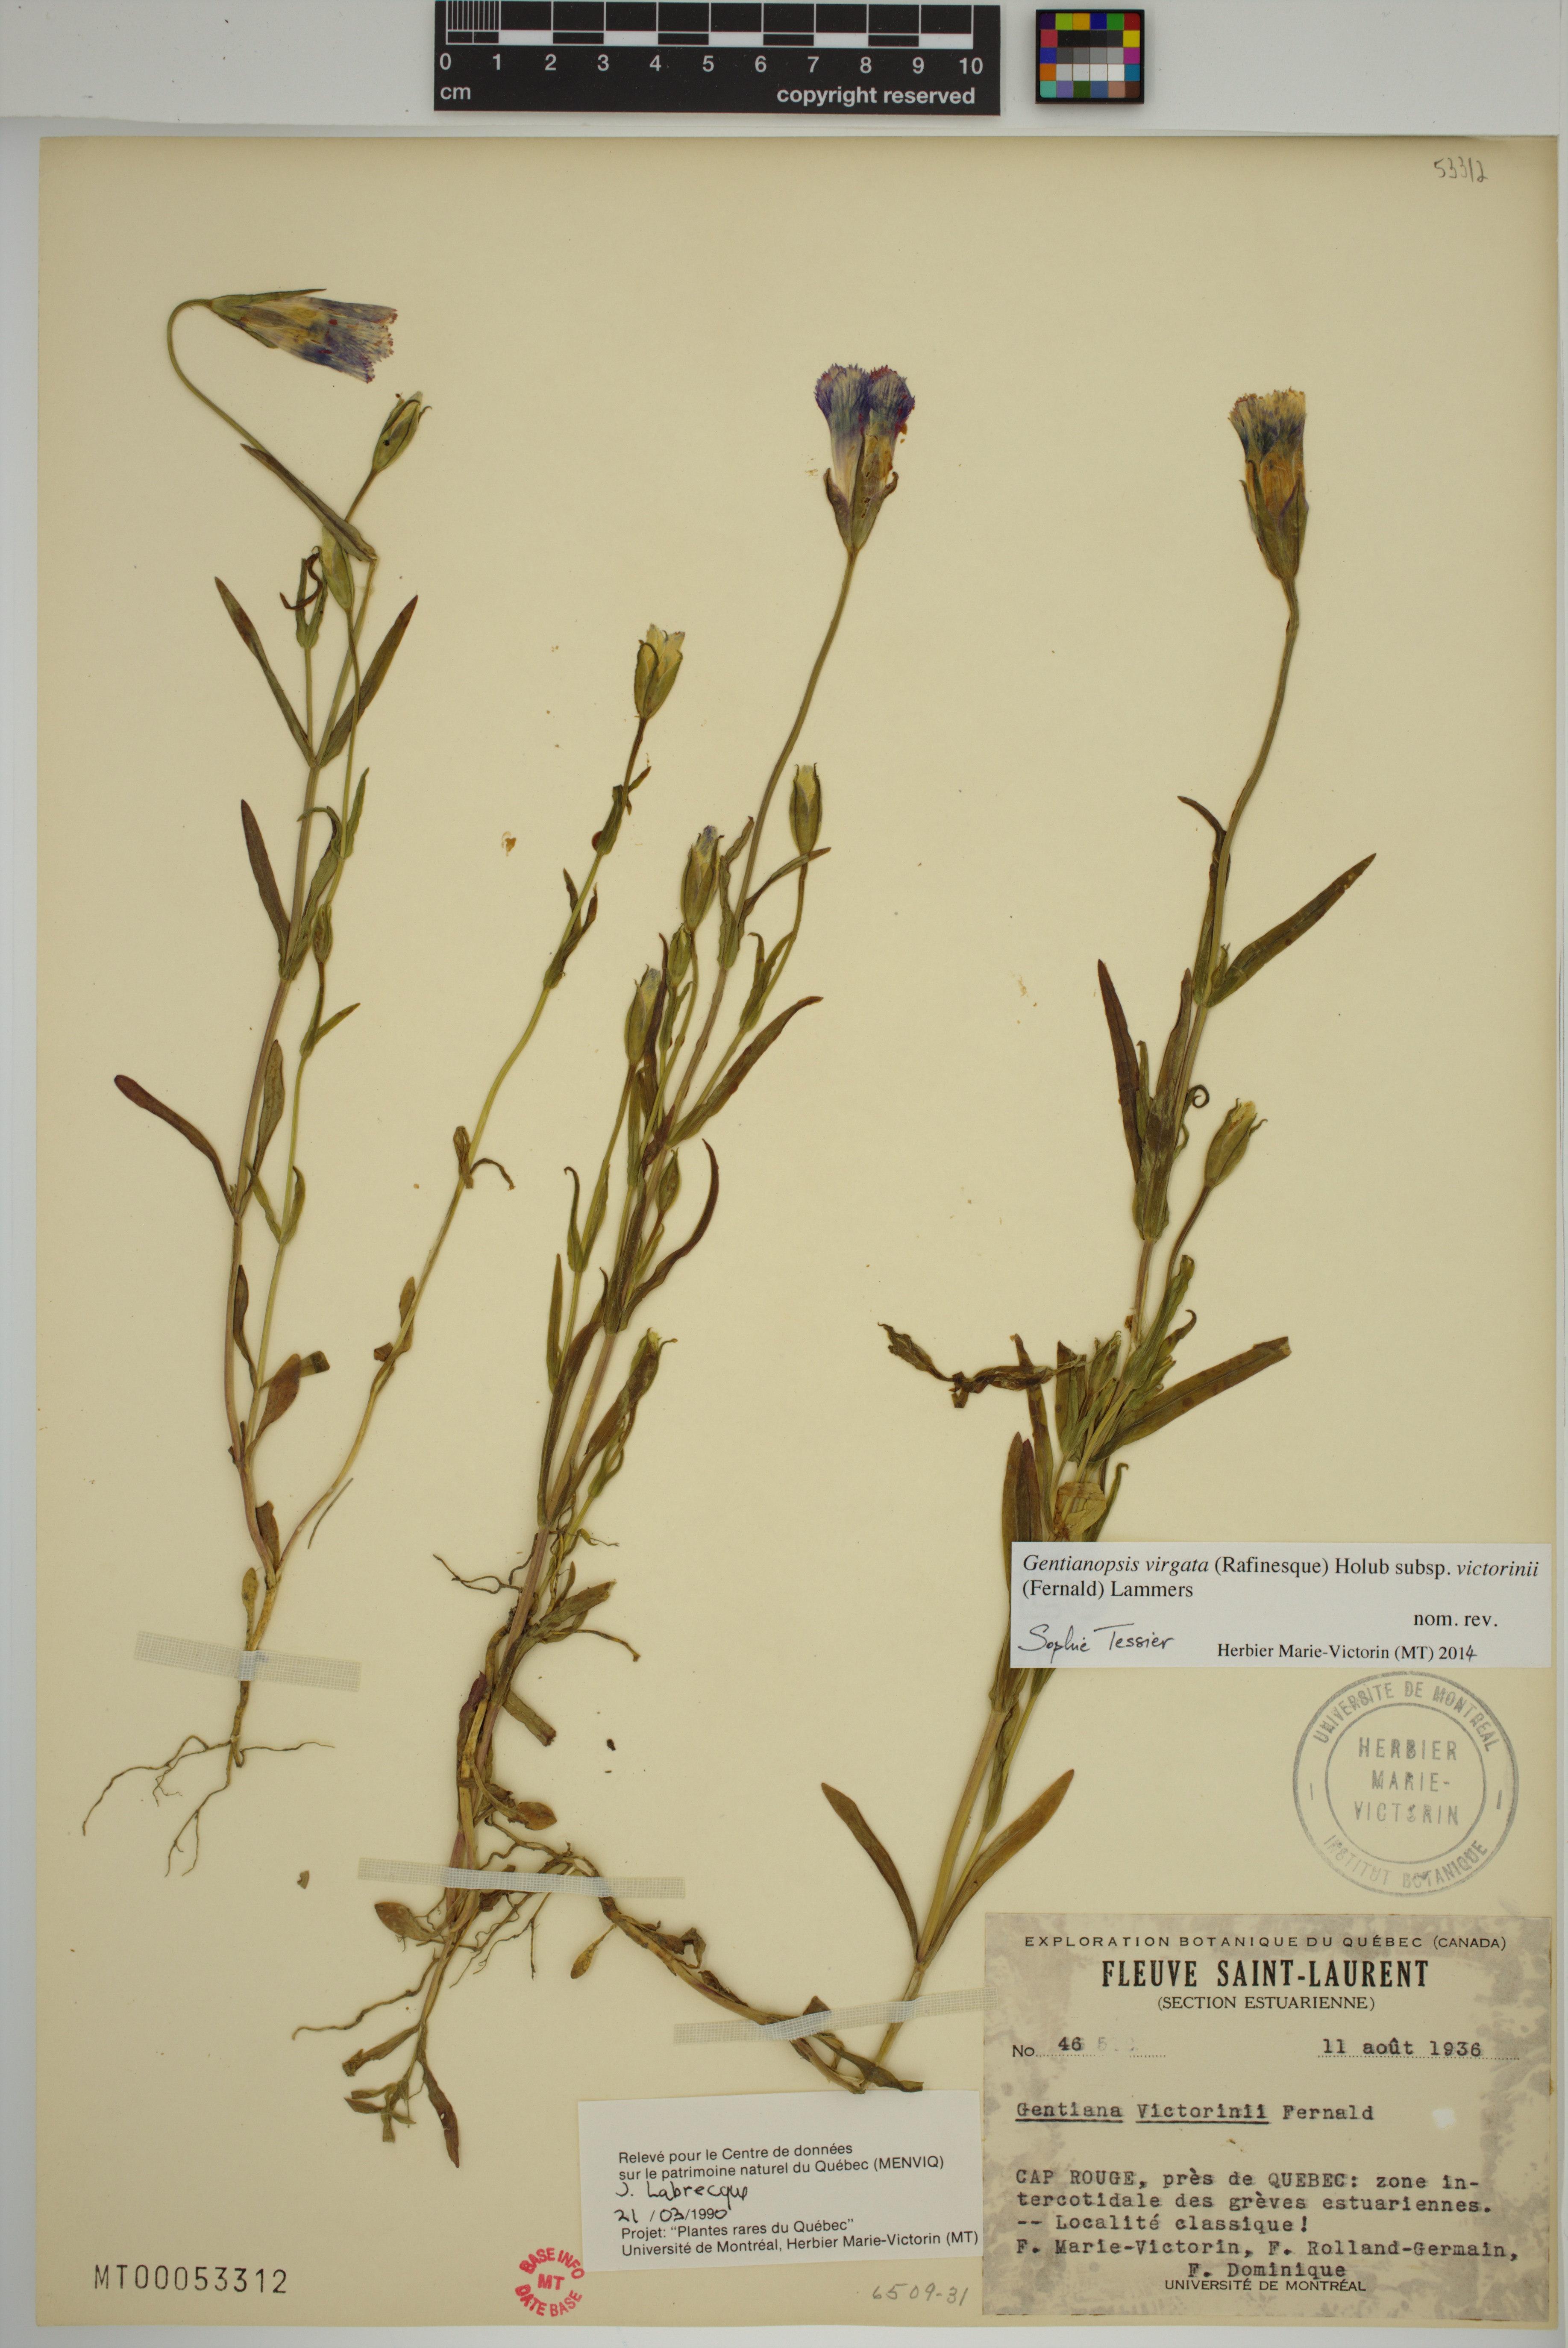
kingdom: Plantae
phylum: Tracheophyta
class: Magnoliopsida
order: Gentianales
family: Gentianaceae
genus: Gentianopsis
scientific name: Gentianopsis victorinii
